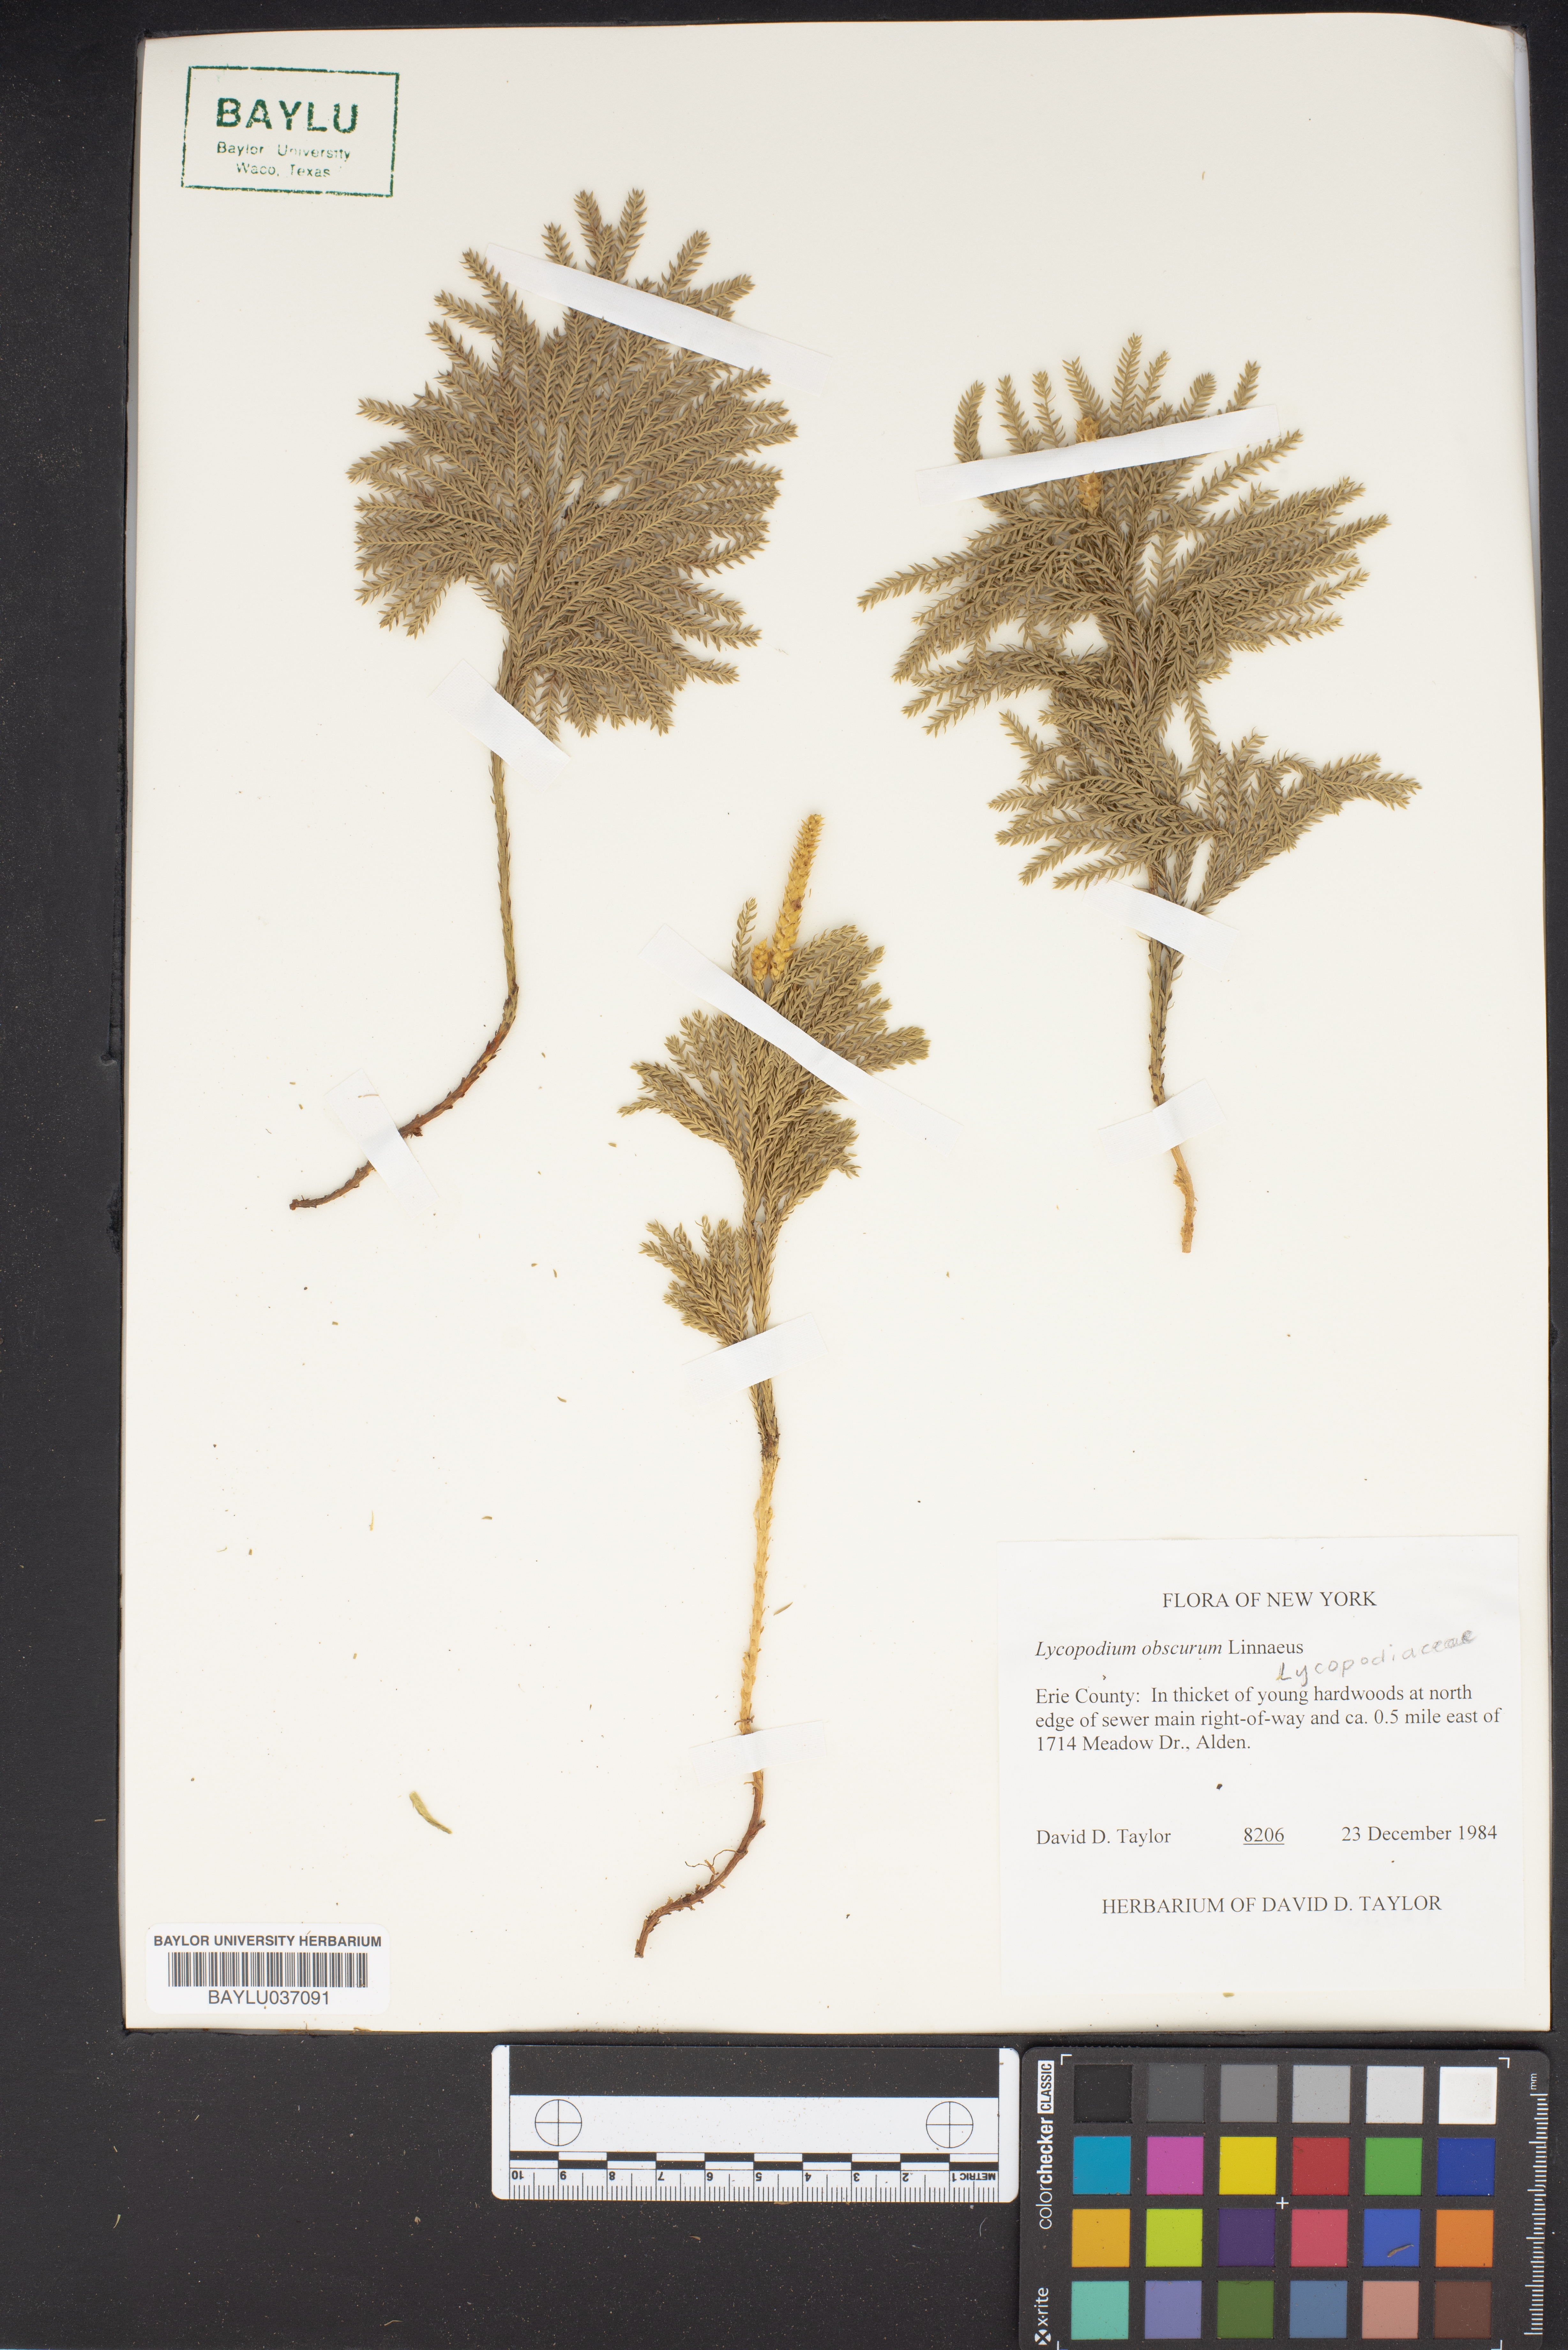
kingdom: Plantae
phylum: Tracheophyta
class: Lycopodiopsida
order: Lycopodiales
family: Lycopodiaceae
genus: Dendrolycopodium
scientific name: Dendrolycopodium obscurum
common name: Common ground-pine
